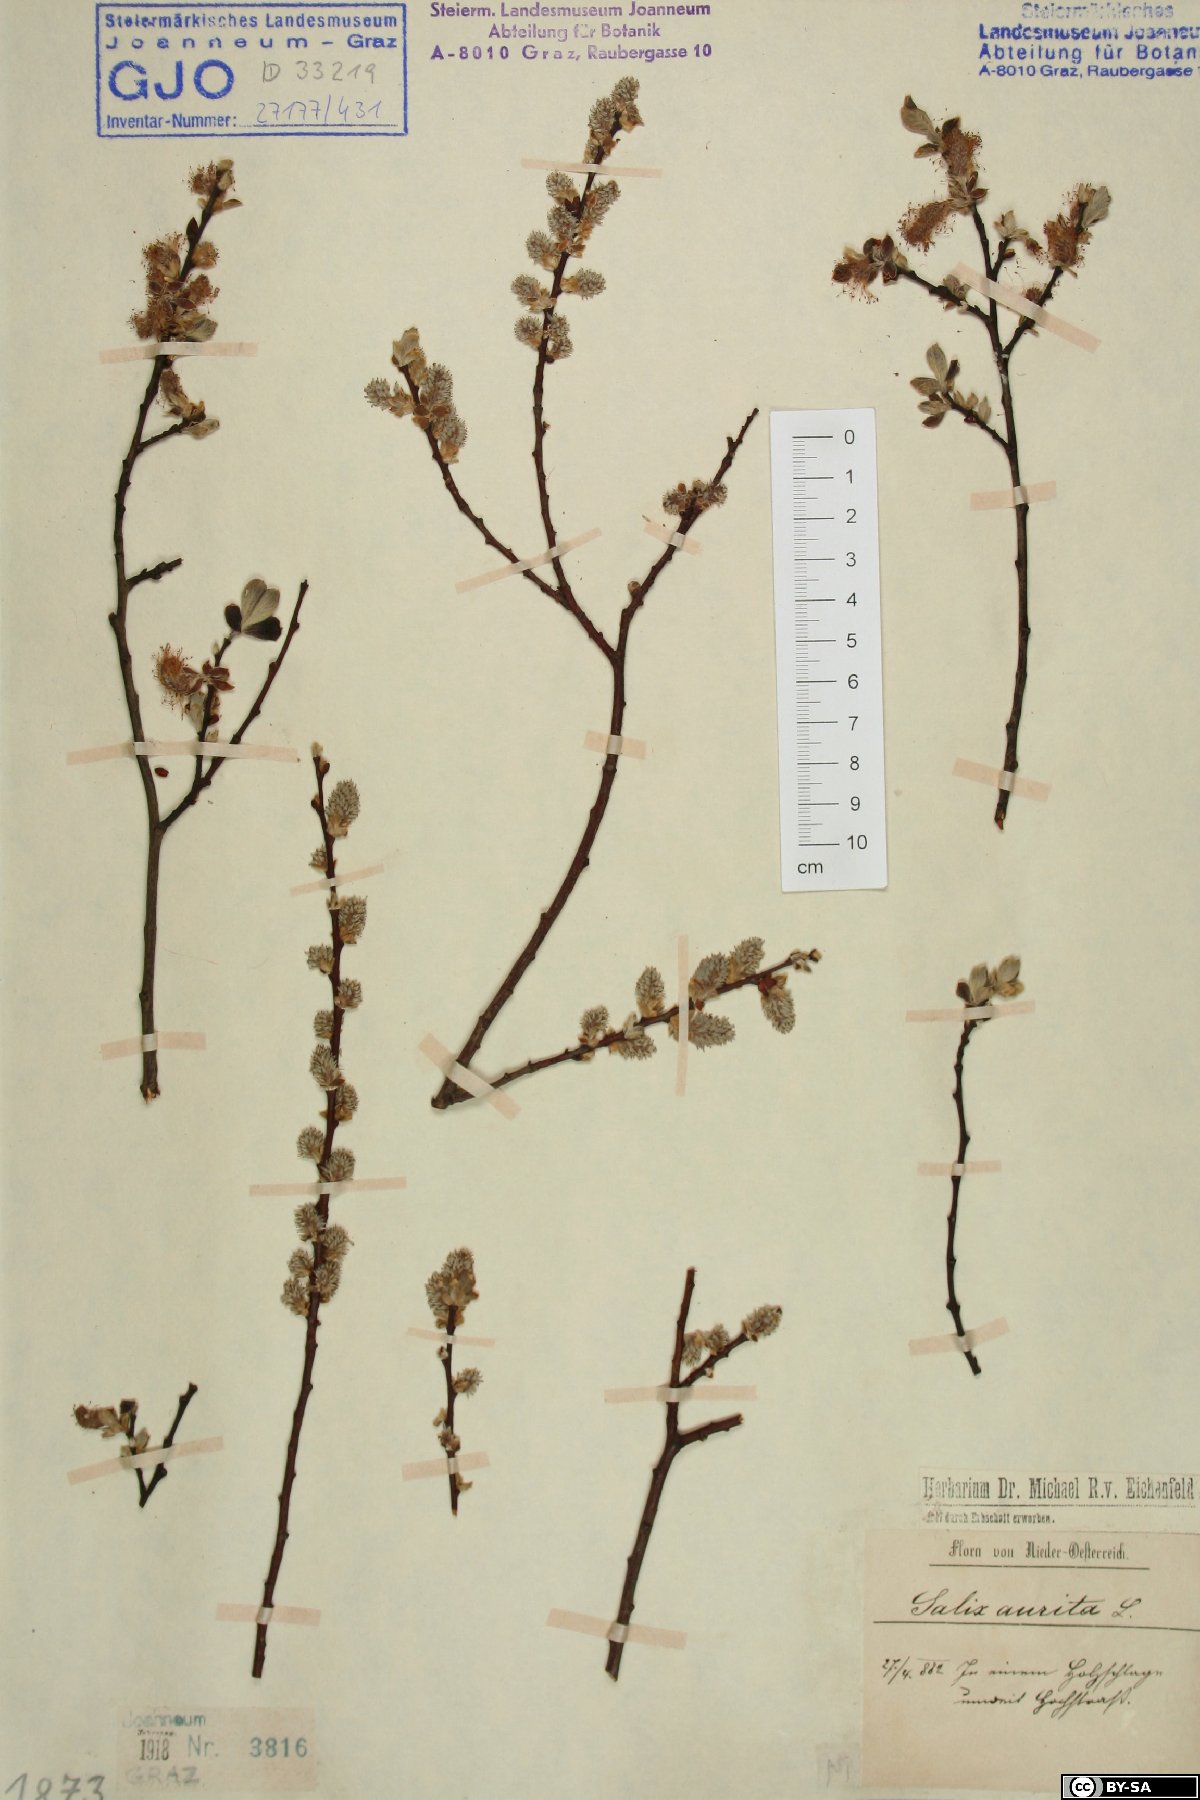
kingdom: Plantae
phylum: Tracheophyta
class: Magnoliopsida
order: Malpighiales
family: Salicaceae
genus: Salix
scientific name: Salix aurita
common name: Eared willow
